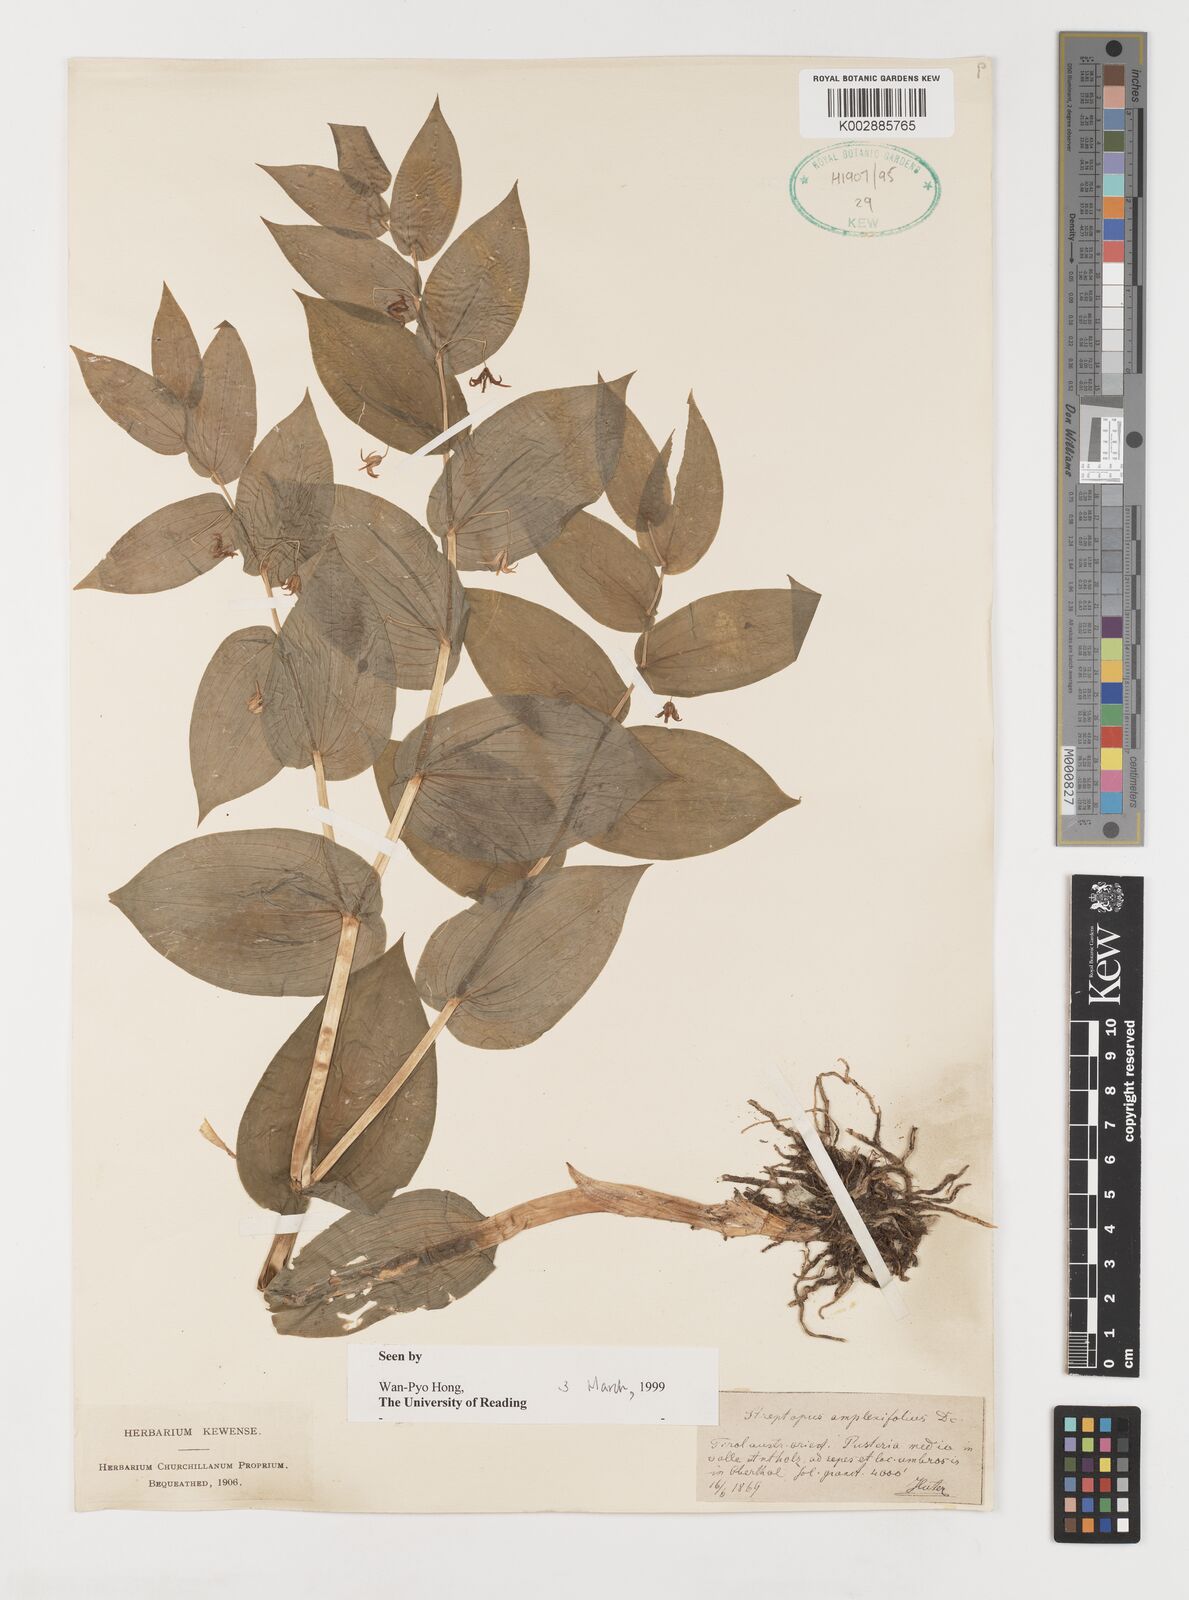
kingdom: Plantae
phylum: Tracheophyta
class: Liliopsida
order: Liliales
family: Liliaceae
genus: Streptopus
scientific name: Streptopus amplexifolius
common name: Clasp twisted stalk
